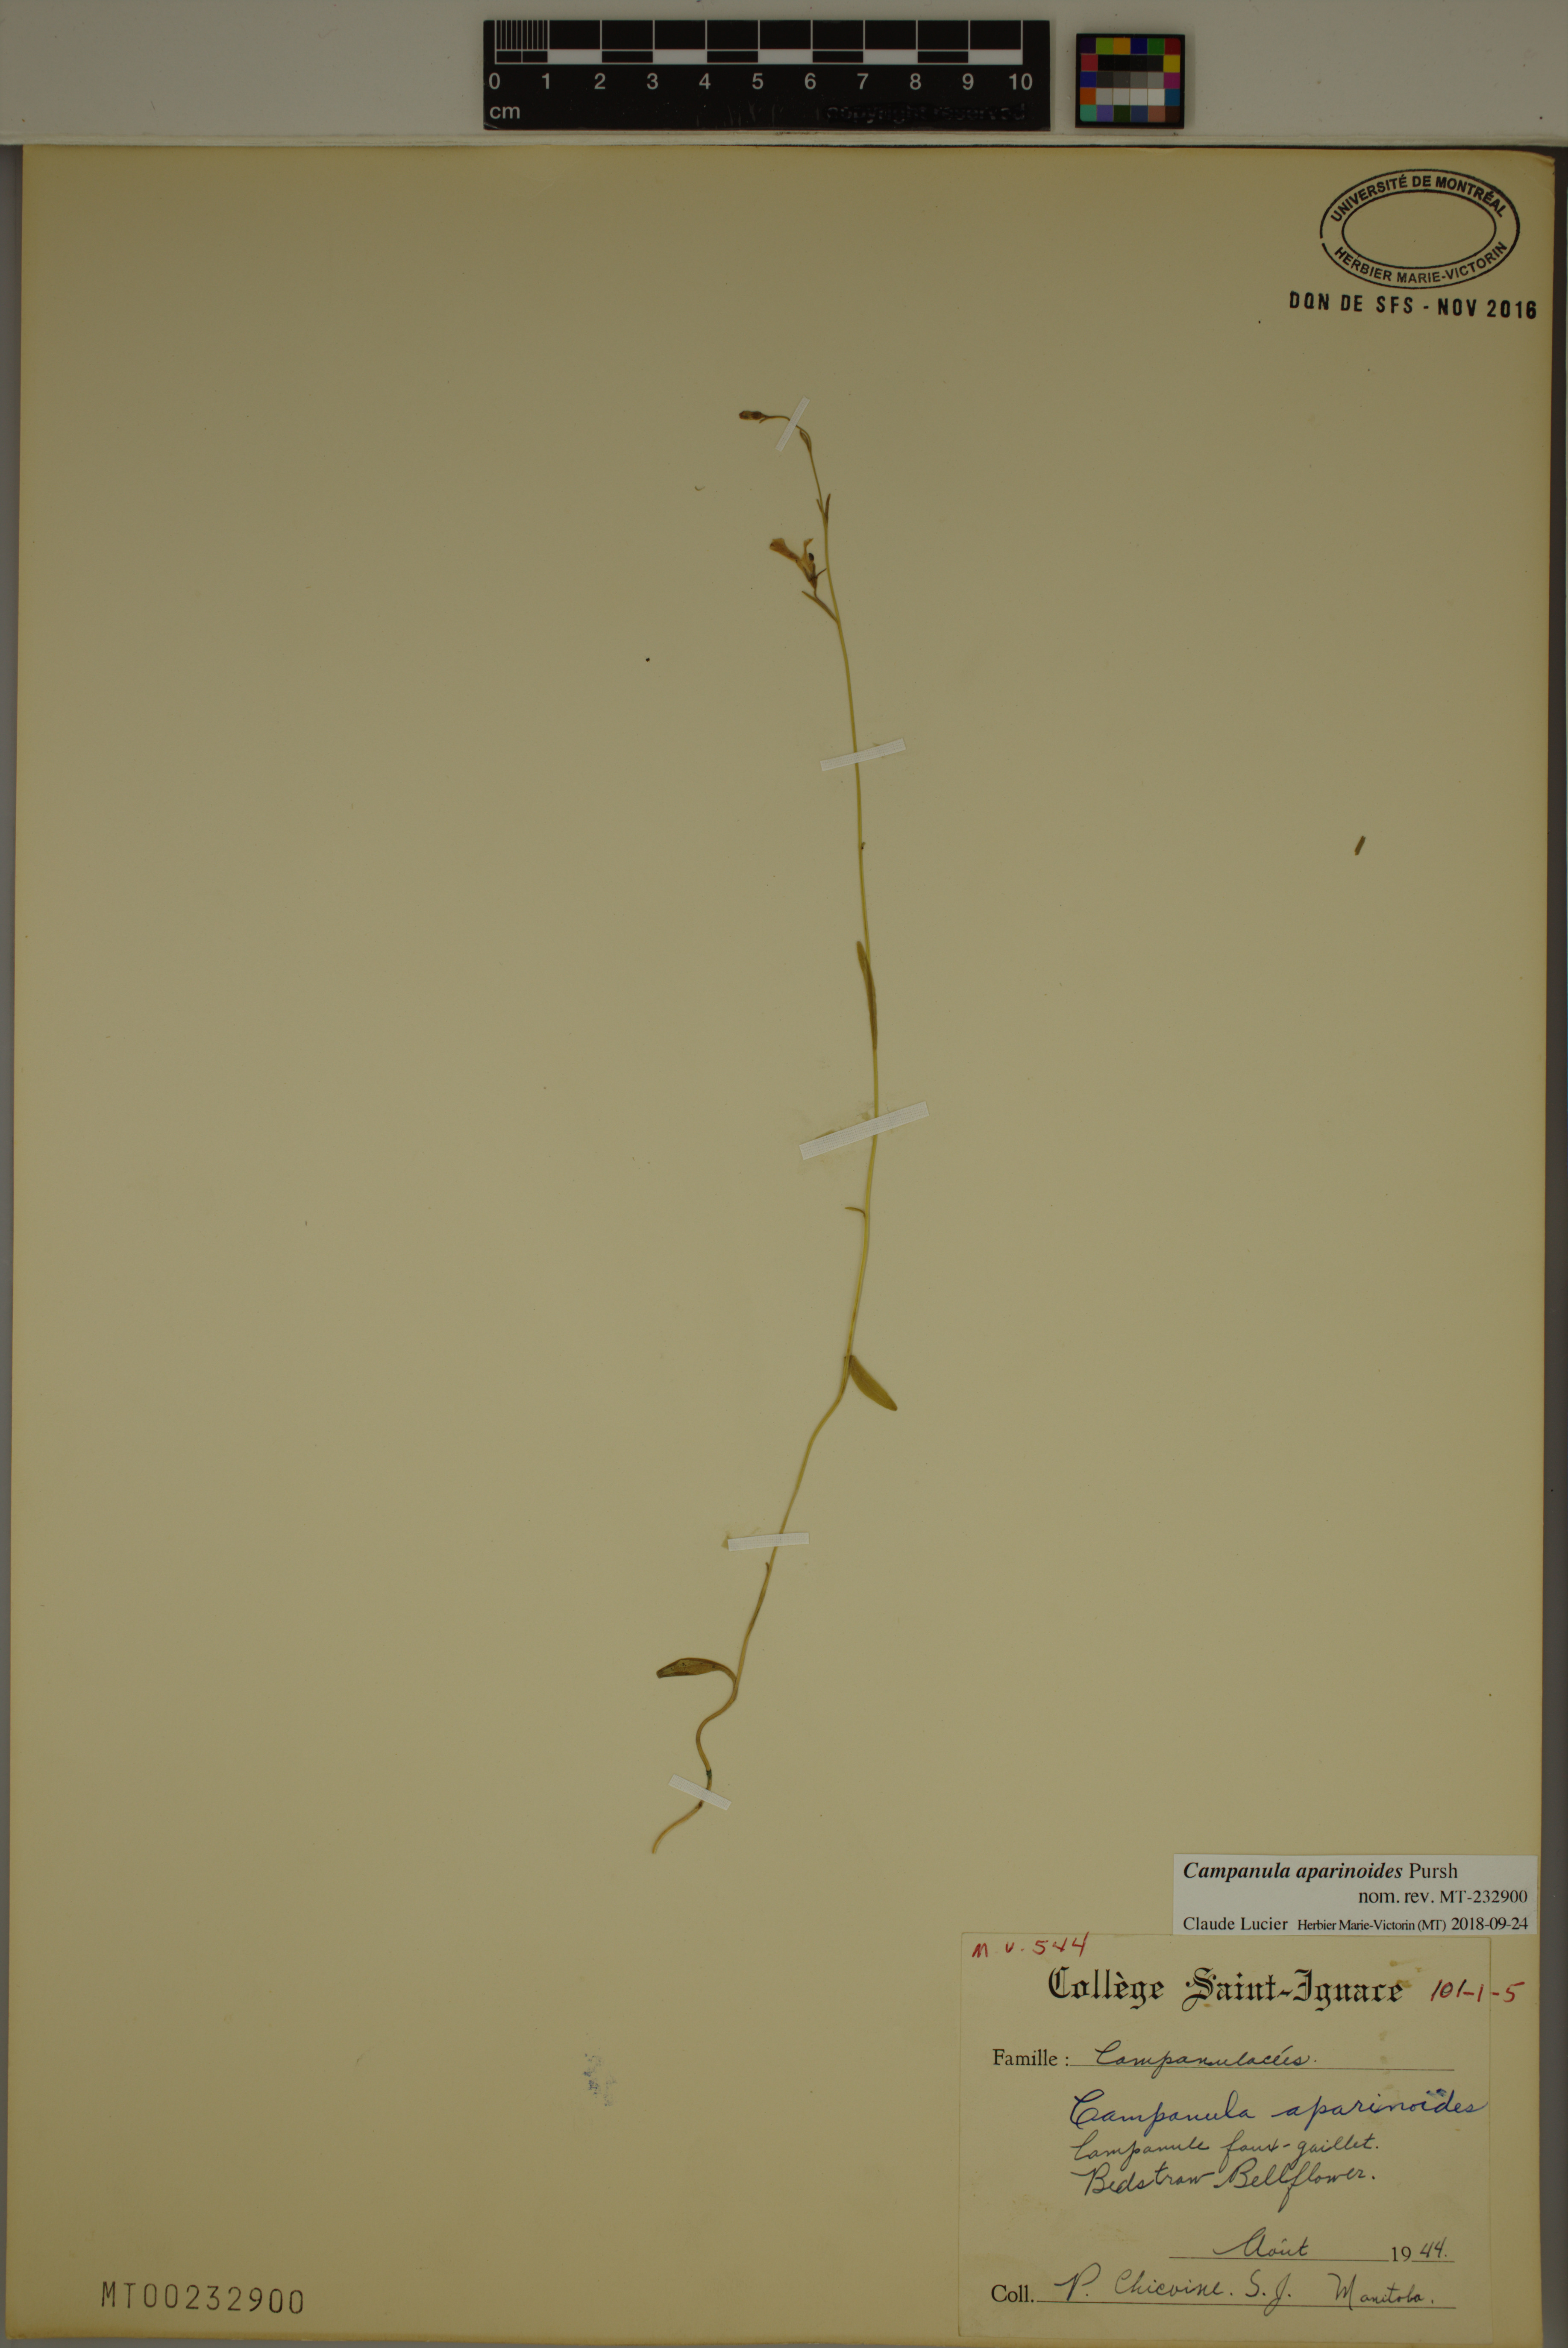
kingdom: Plantae
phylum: Tracheophyta
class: Magnoliopsida
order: Asterales
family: Campanulaceae
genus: Palustricodon
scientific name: Palustricodon aparinoides
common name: Bedstraw bellflower
